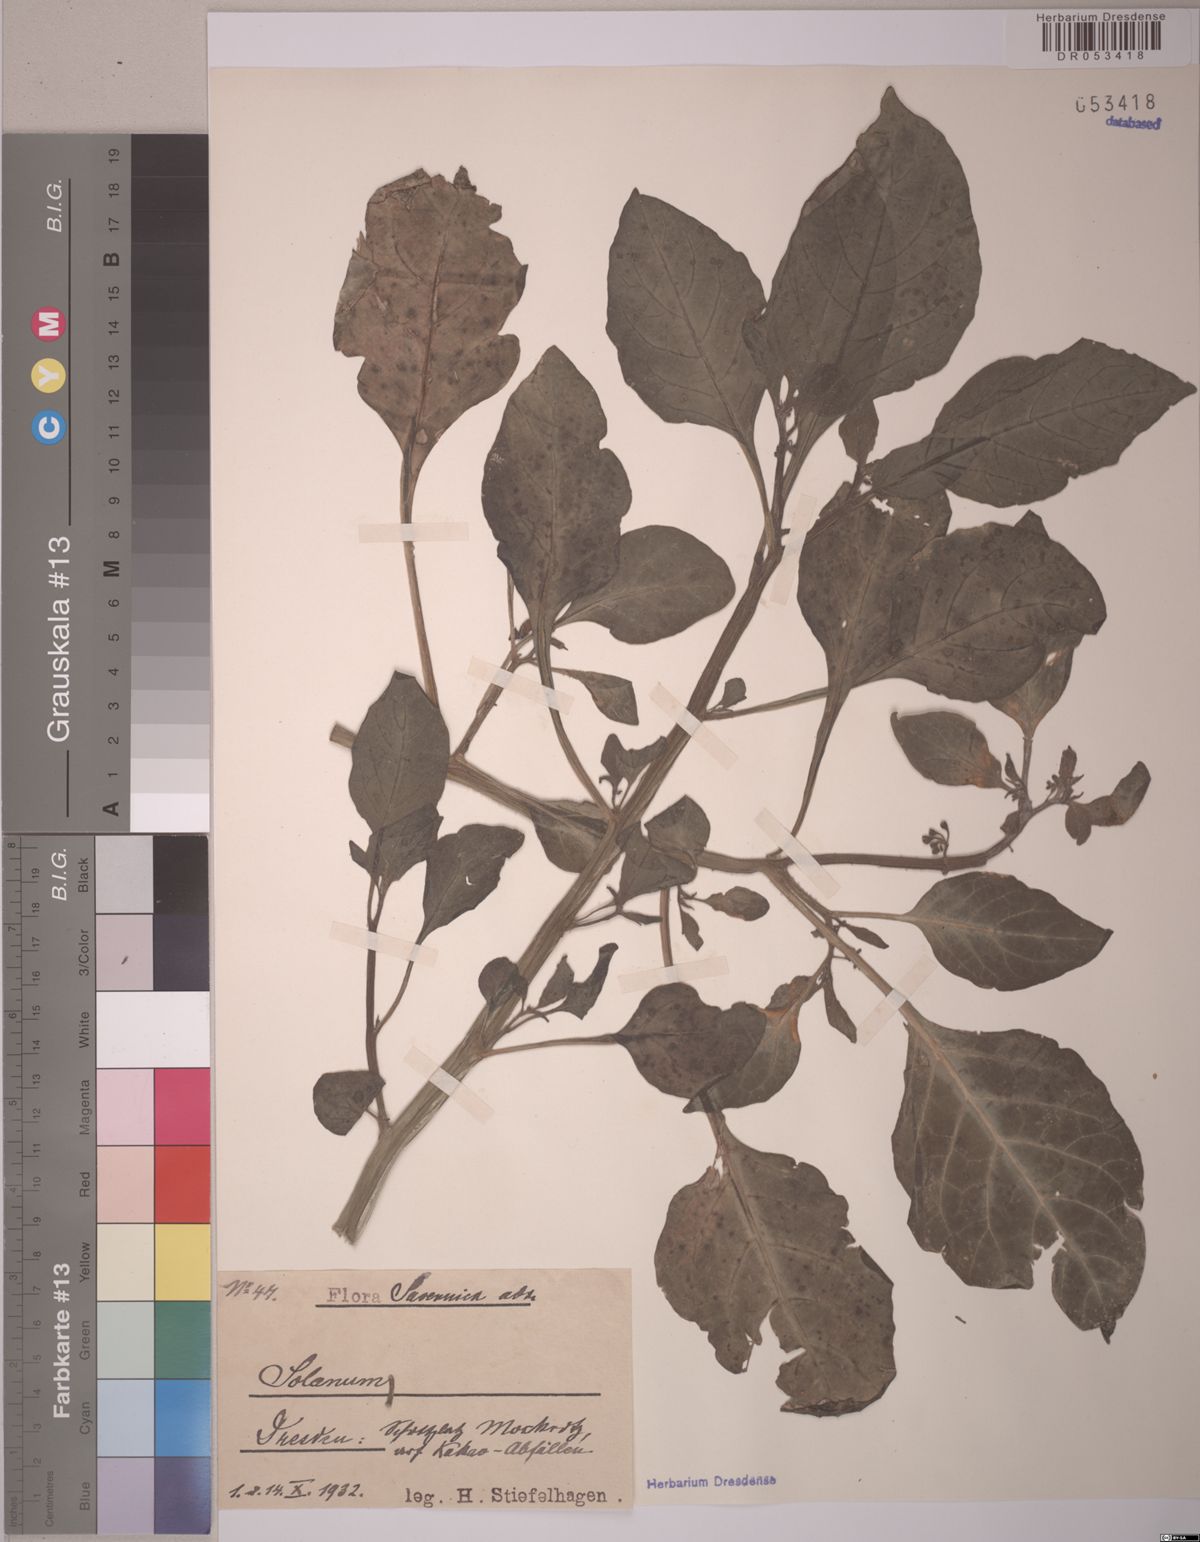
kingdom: Plantae
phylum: Tracheophyta
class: Magnoliopsida
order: Solanales
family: Solanaceae
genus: Solanum
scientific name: Solanum
